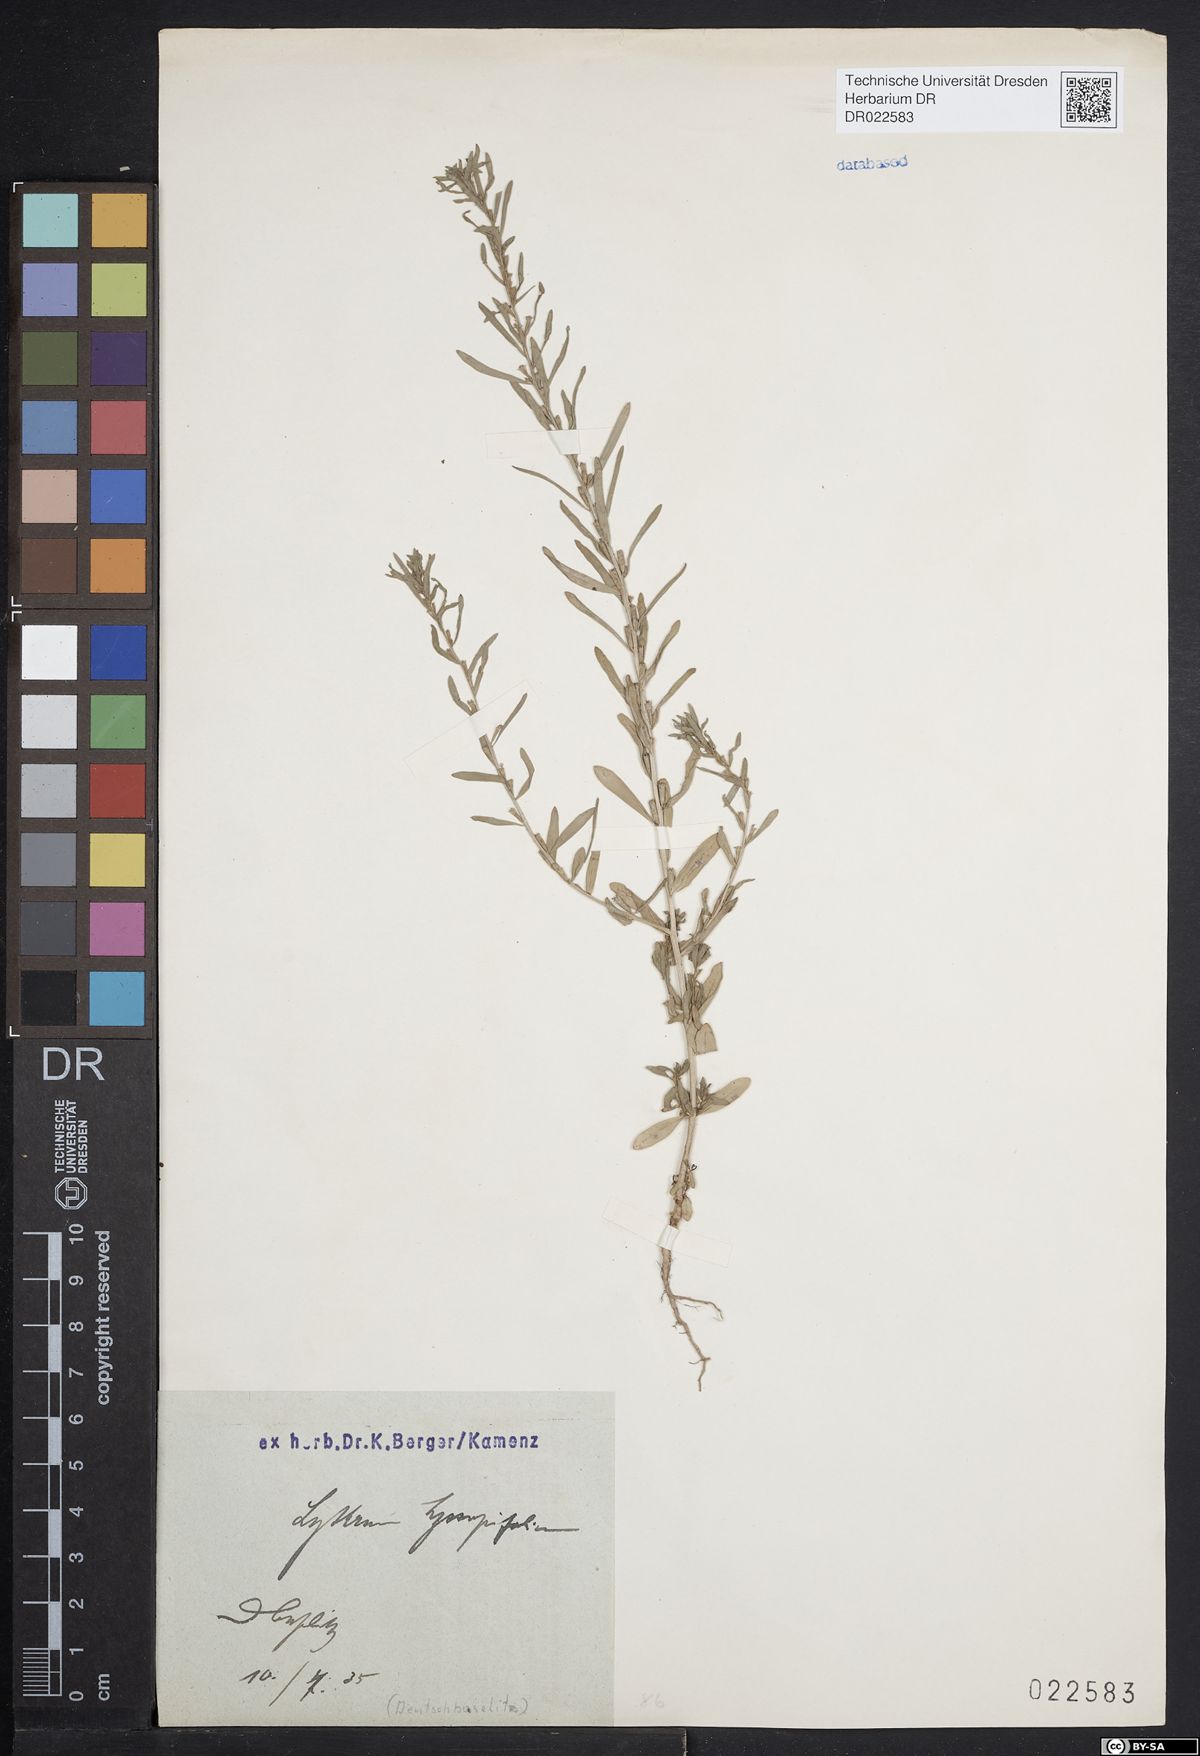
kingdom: Plantae
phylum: Tracheophyta
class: Magnoliopsida
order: Myrtales
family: Lythraceae
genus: Lythrum
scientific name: Lythrum hyssopifolia
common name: Grass-poly
